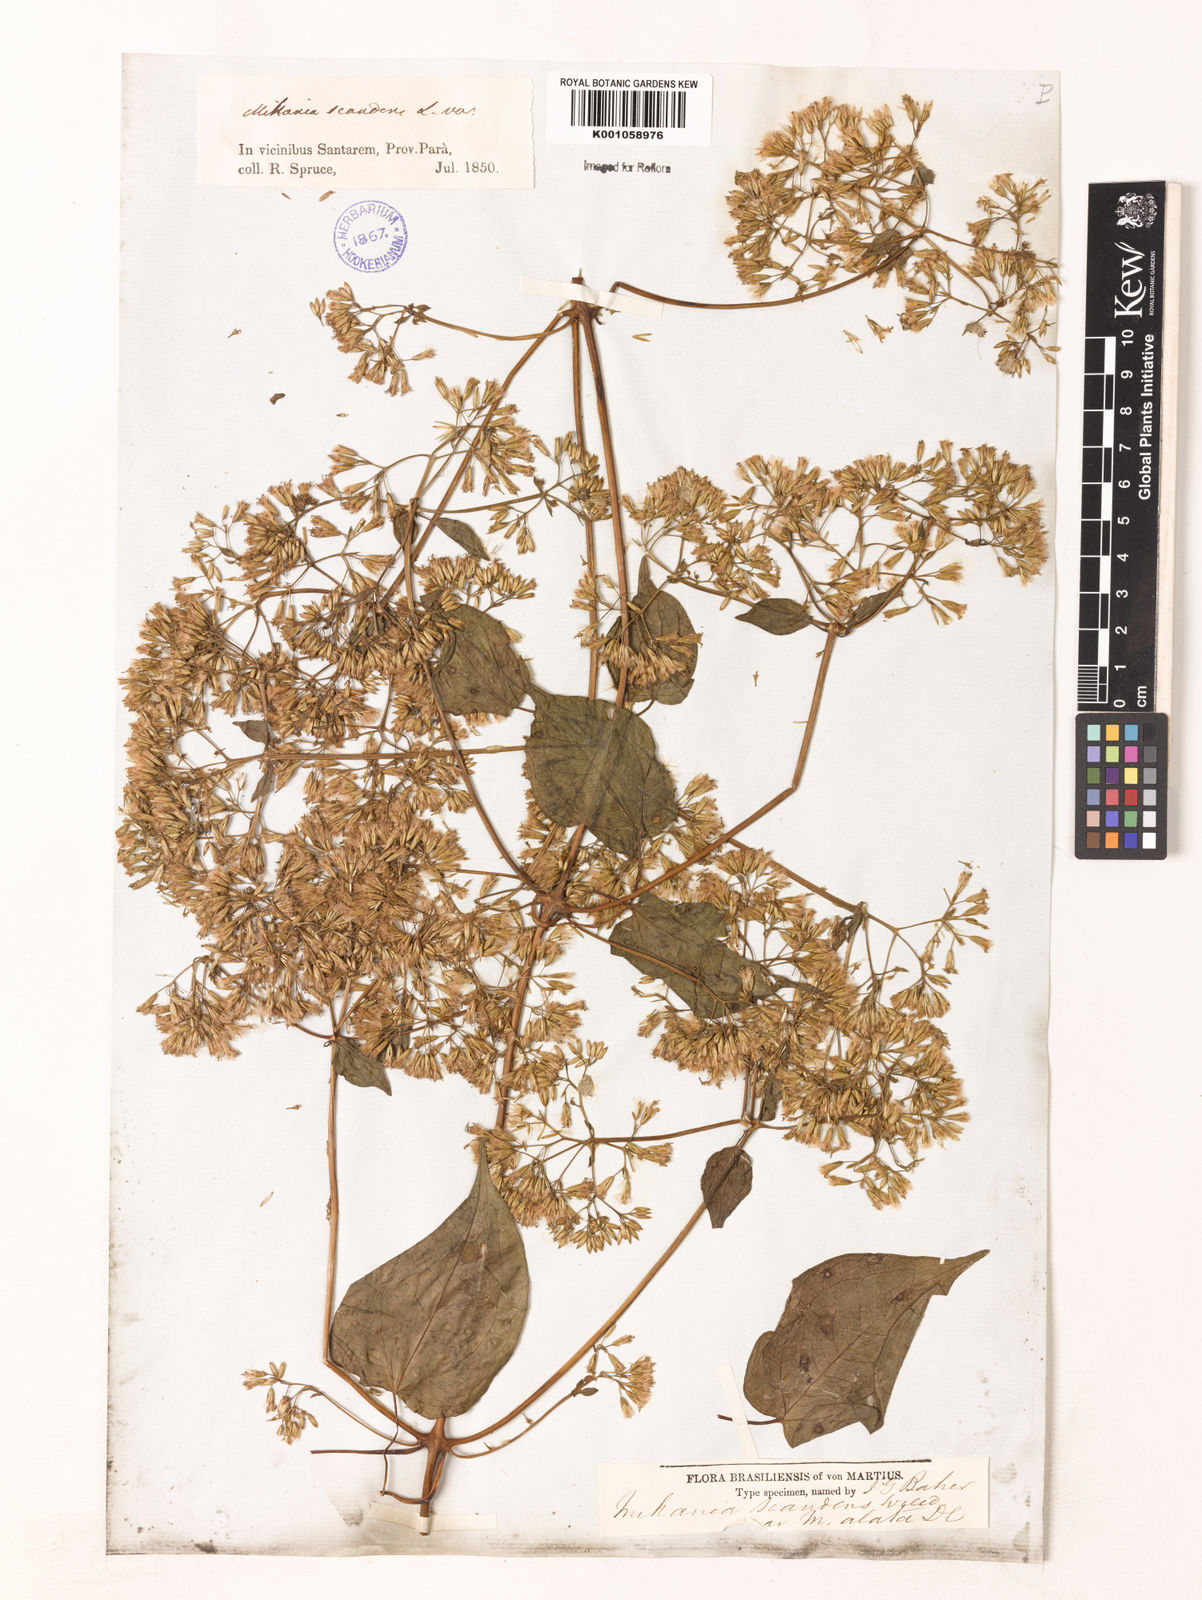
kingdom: Plantae
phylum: Tracheophyta
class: Magnoliopsida
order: Asterales
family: Asteraceae
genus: Mikania
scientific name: Mikania rimachii
